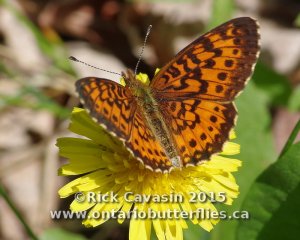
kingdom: Animalia
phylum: Arthropoda
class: Insecta
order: Lepidoptera
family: Nymphalidae
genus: Boloria
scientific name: Boloria selene
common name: Silver-bordered Fritillary
